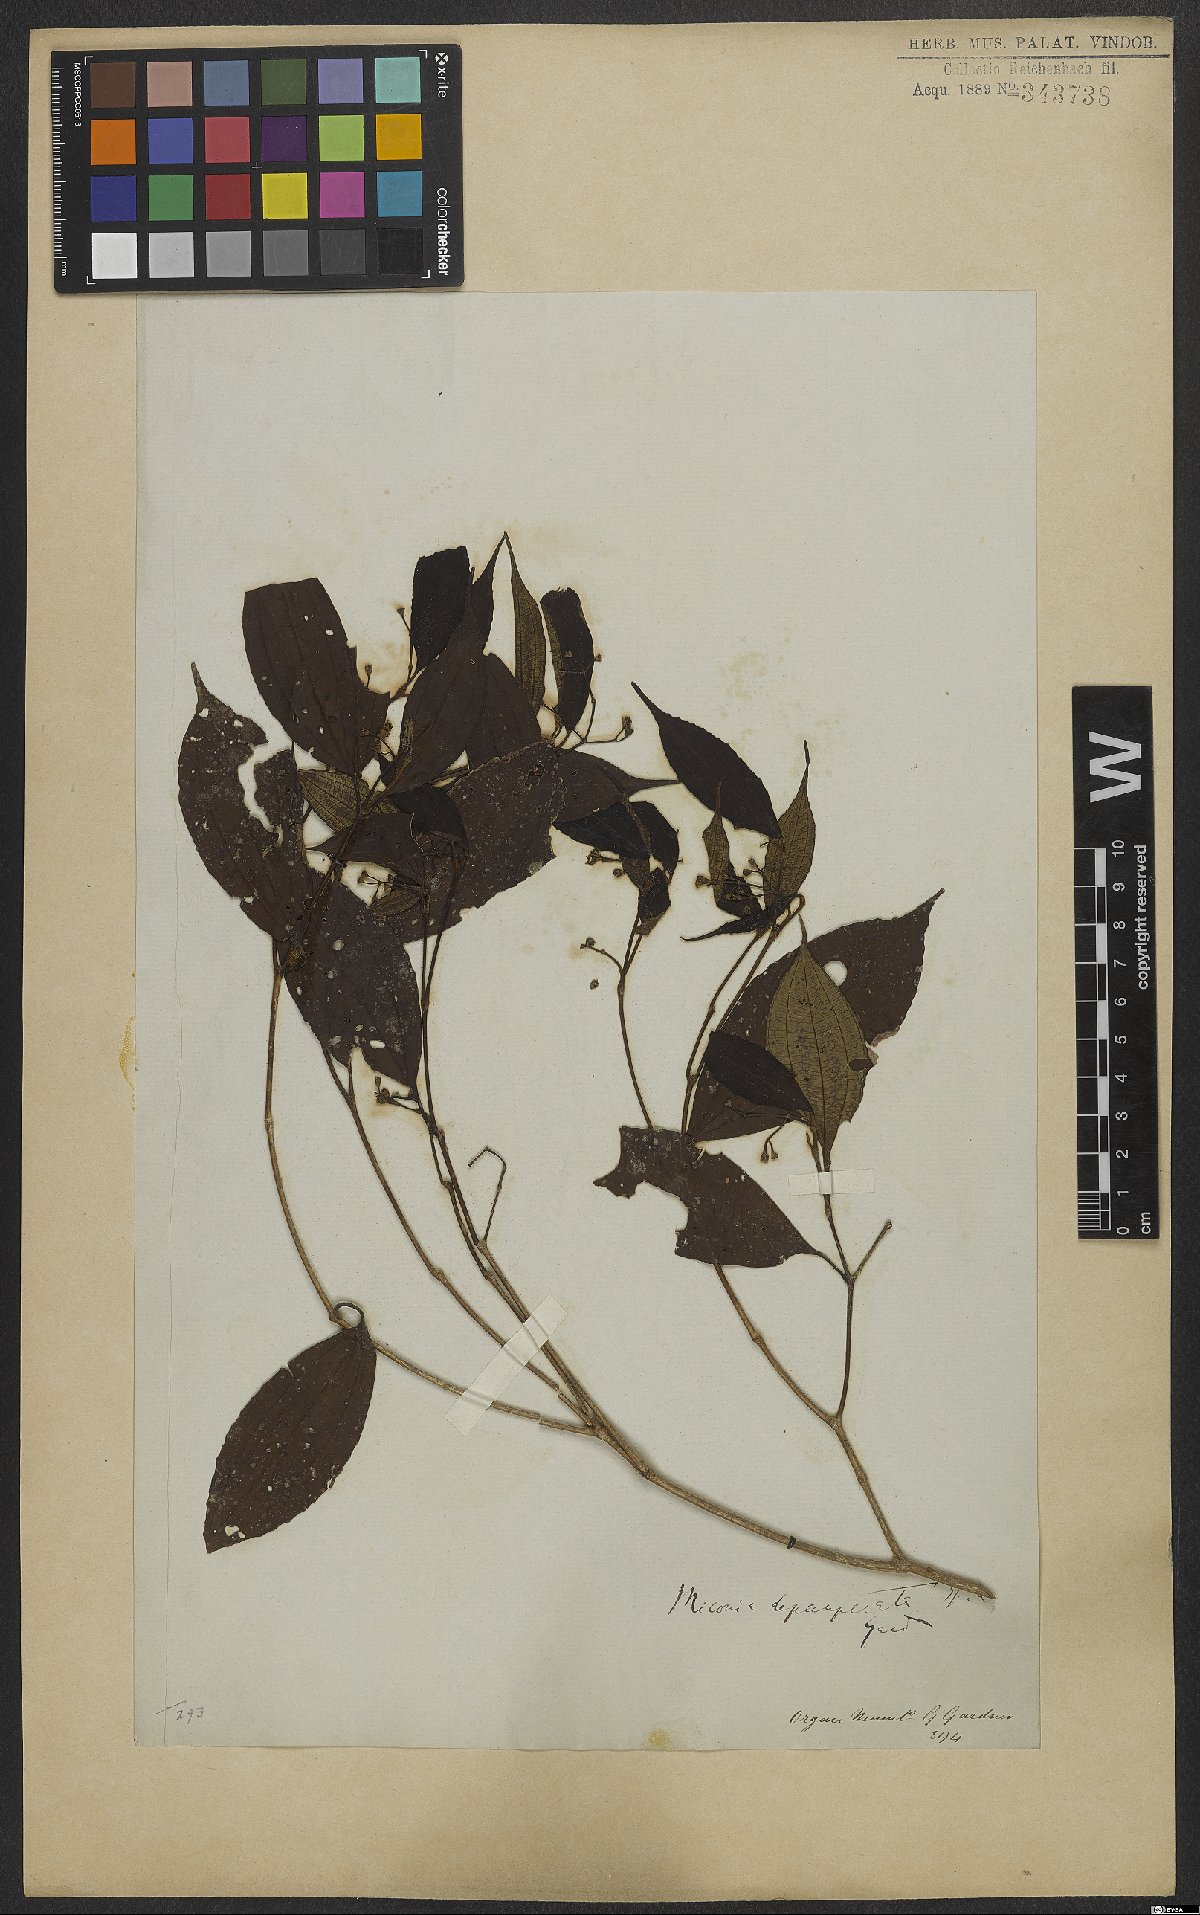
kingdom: Plantae
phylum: Tracheophyta
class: Magnoliopsida
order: Myrtales
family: Melastomataceae
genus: Miconia
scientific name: Miconia depauperata
